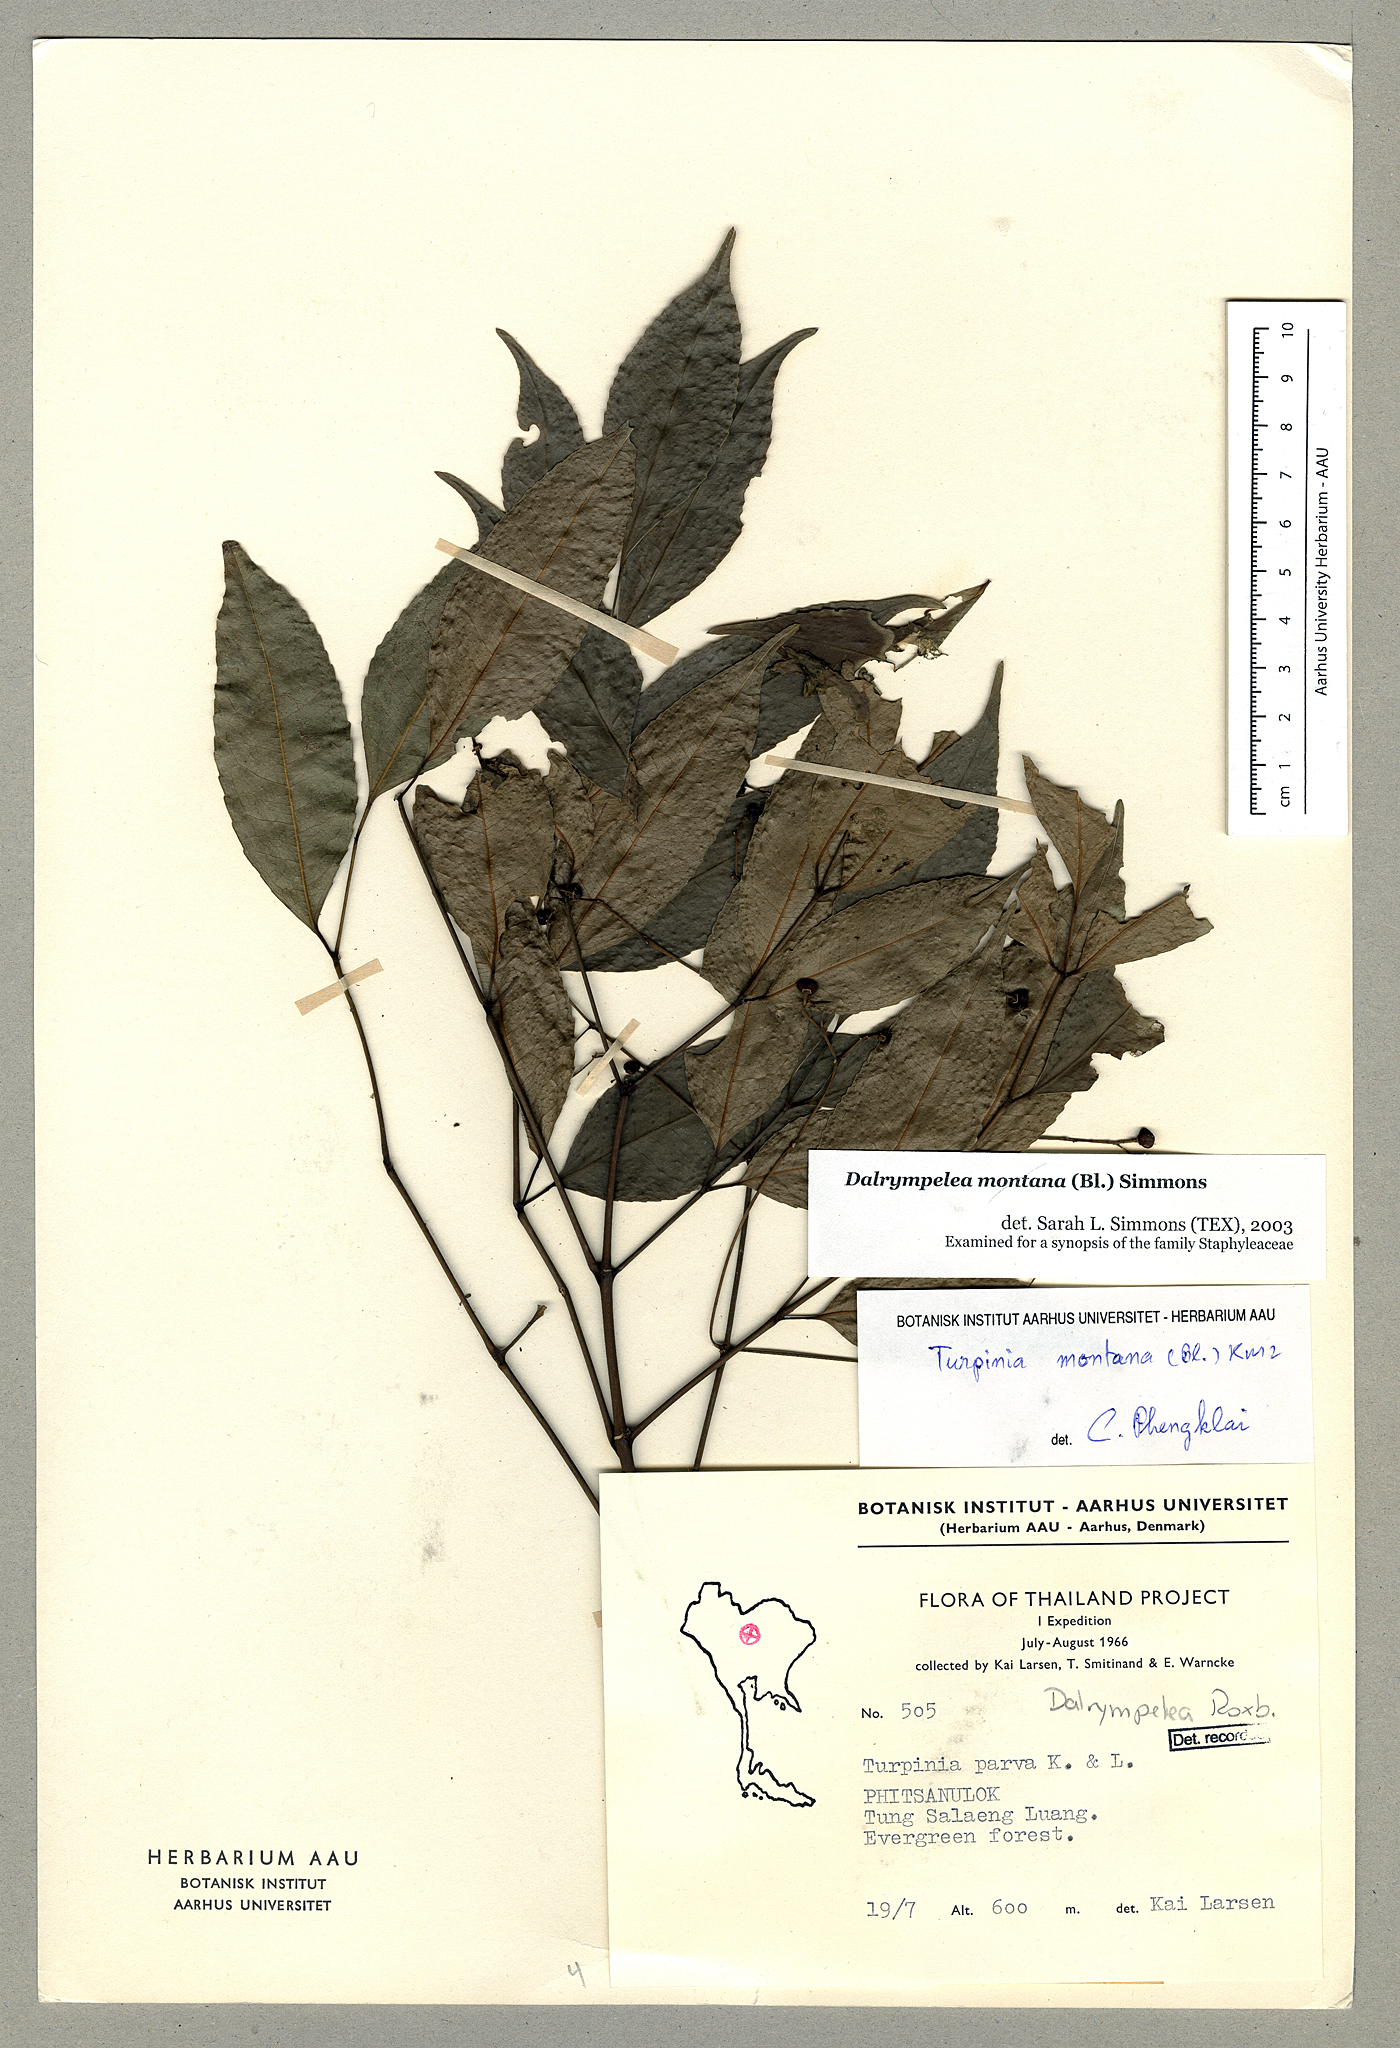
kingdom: Plantae
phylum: Tracheophyta
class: Magnoliopsida
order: Crossosomatales
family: Staphyleaceae
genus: Turpinia
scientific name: Turpinia montana
